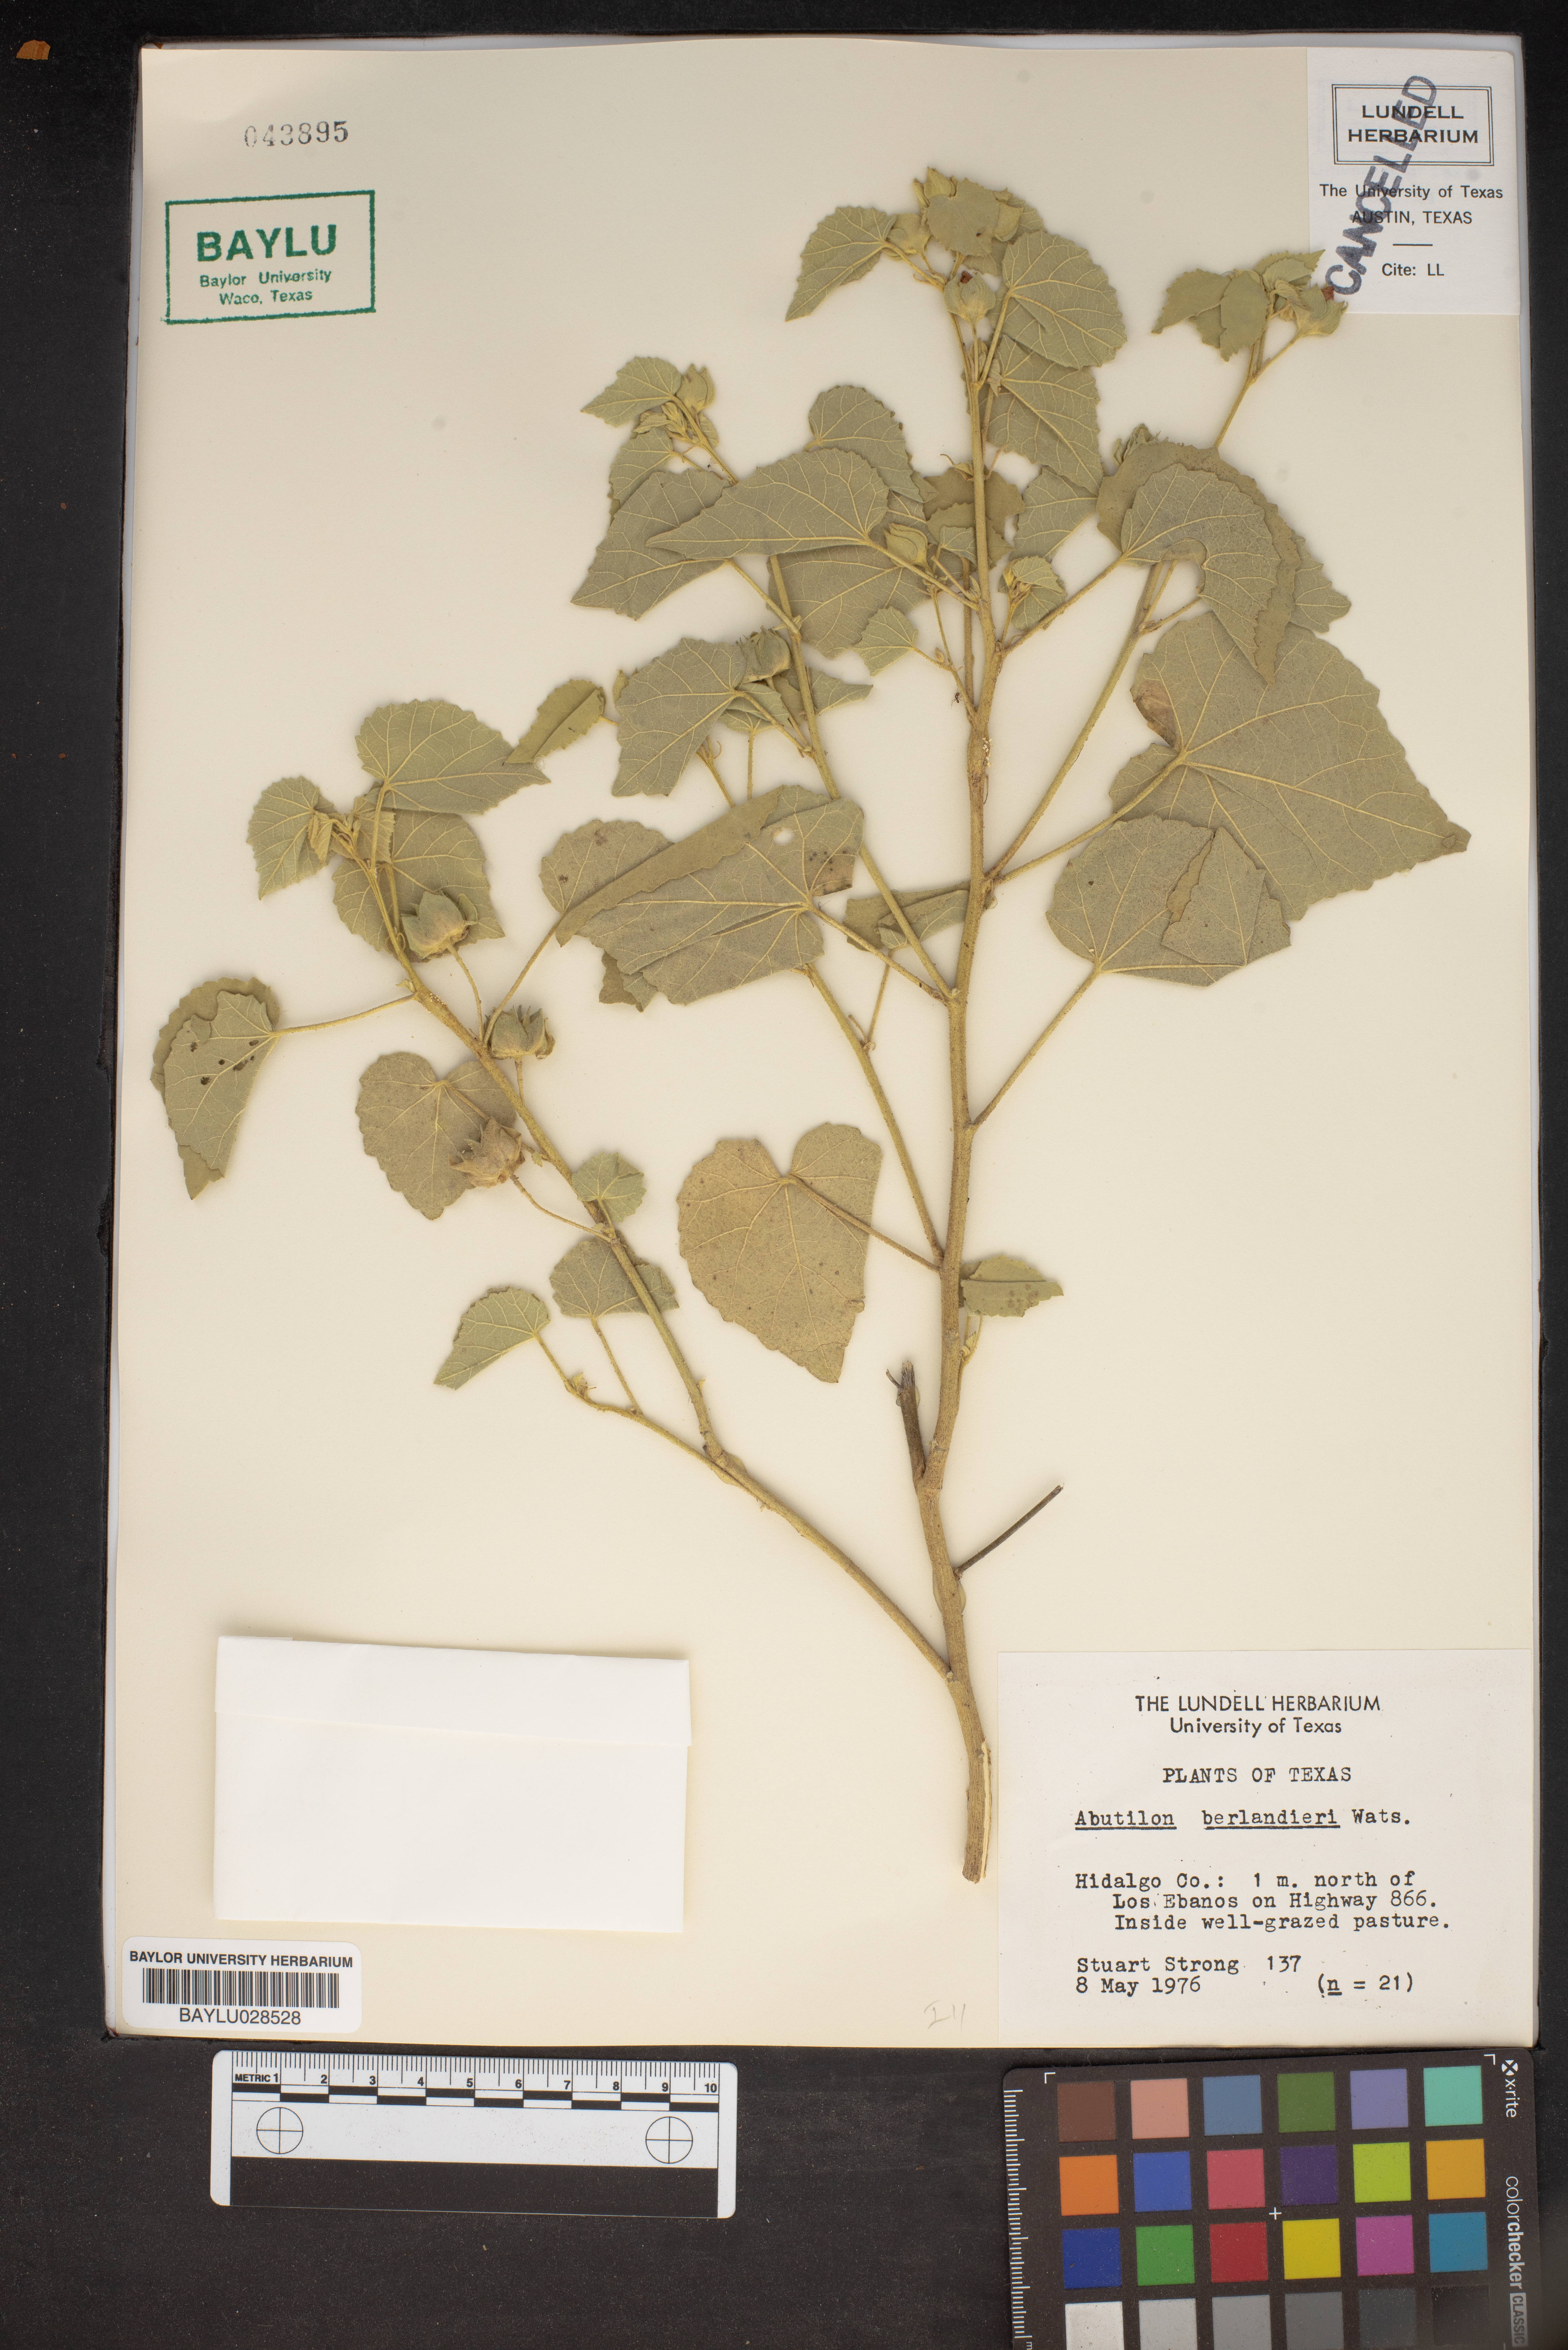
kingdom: Plantae
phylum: Tracheophyta
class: Magnoliopsida
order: Malvales
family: Malvaceae
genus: Abutilon
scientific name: Abutilon berlandieri
